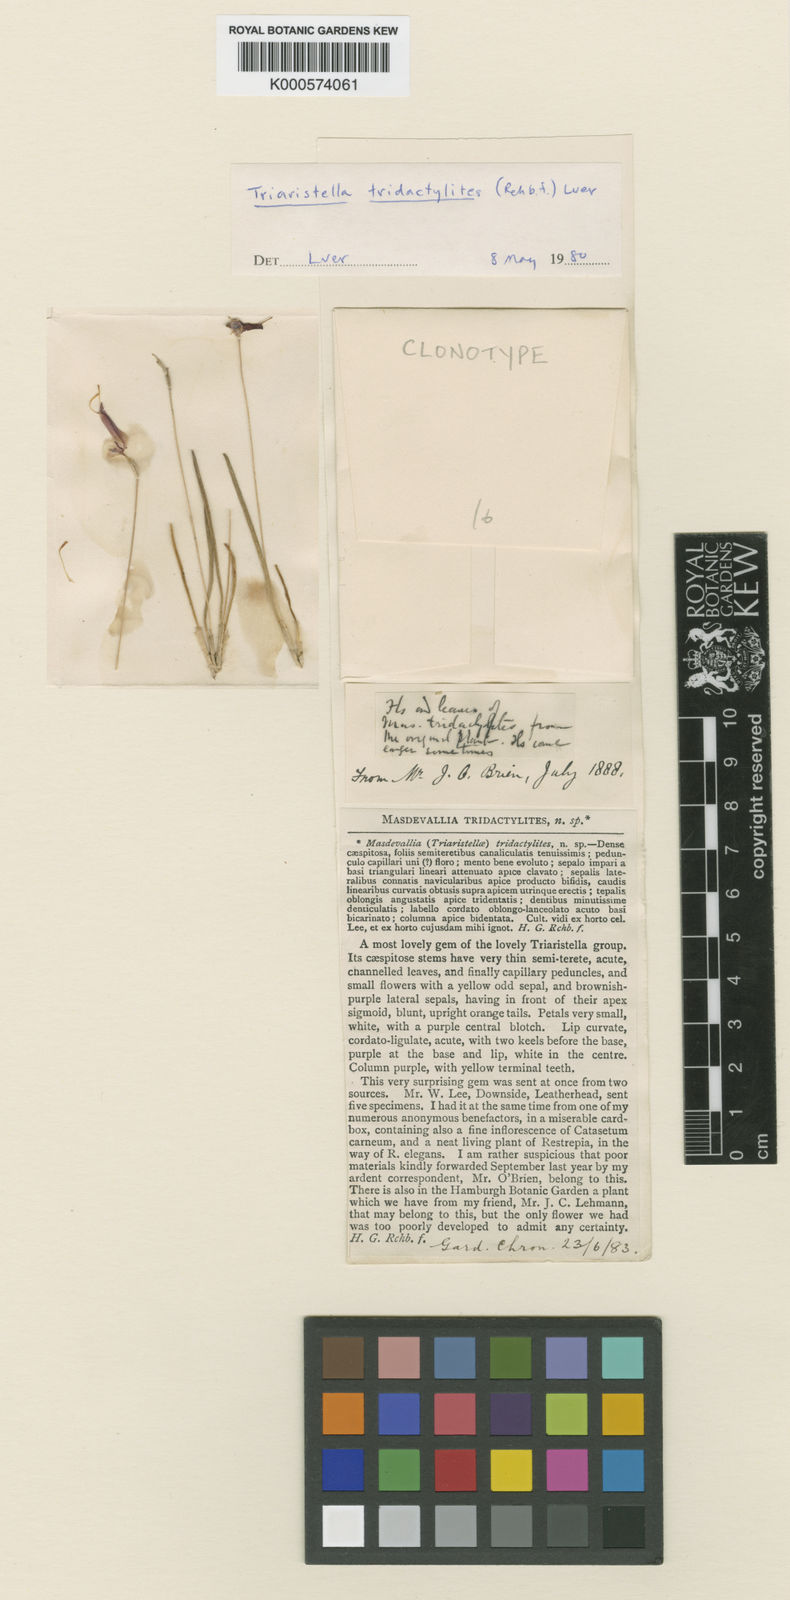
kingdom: Plantae
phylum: Tracheophyta
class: Liliopsida
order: Asparagales
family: Orchidaceae
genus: Trisetella
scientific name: Trisetella triglochin
